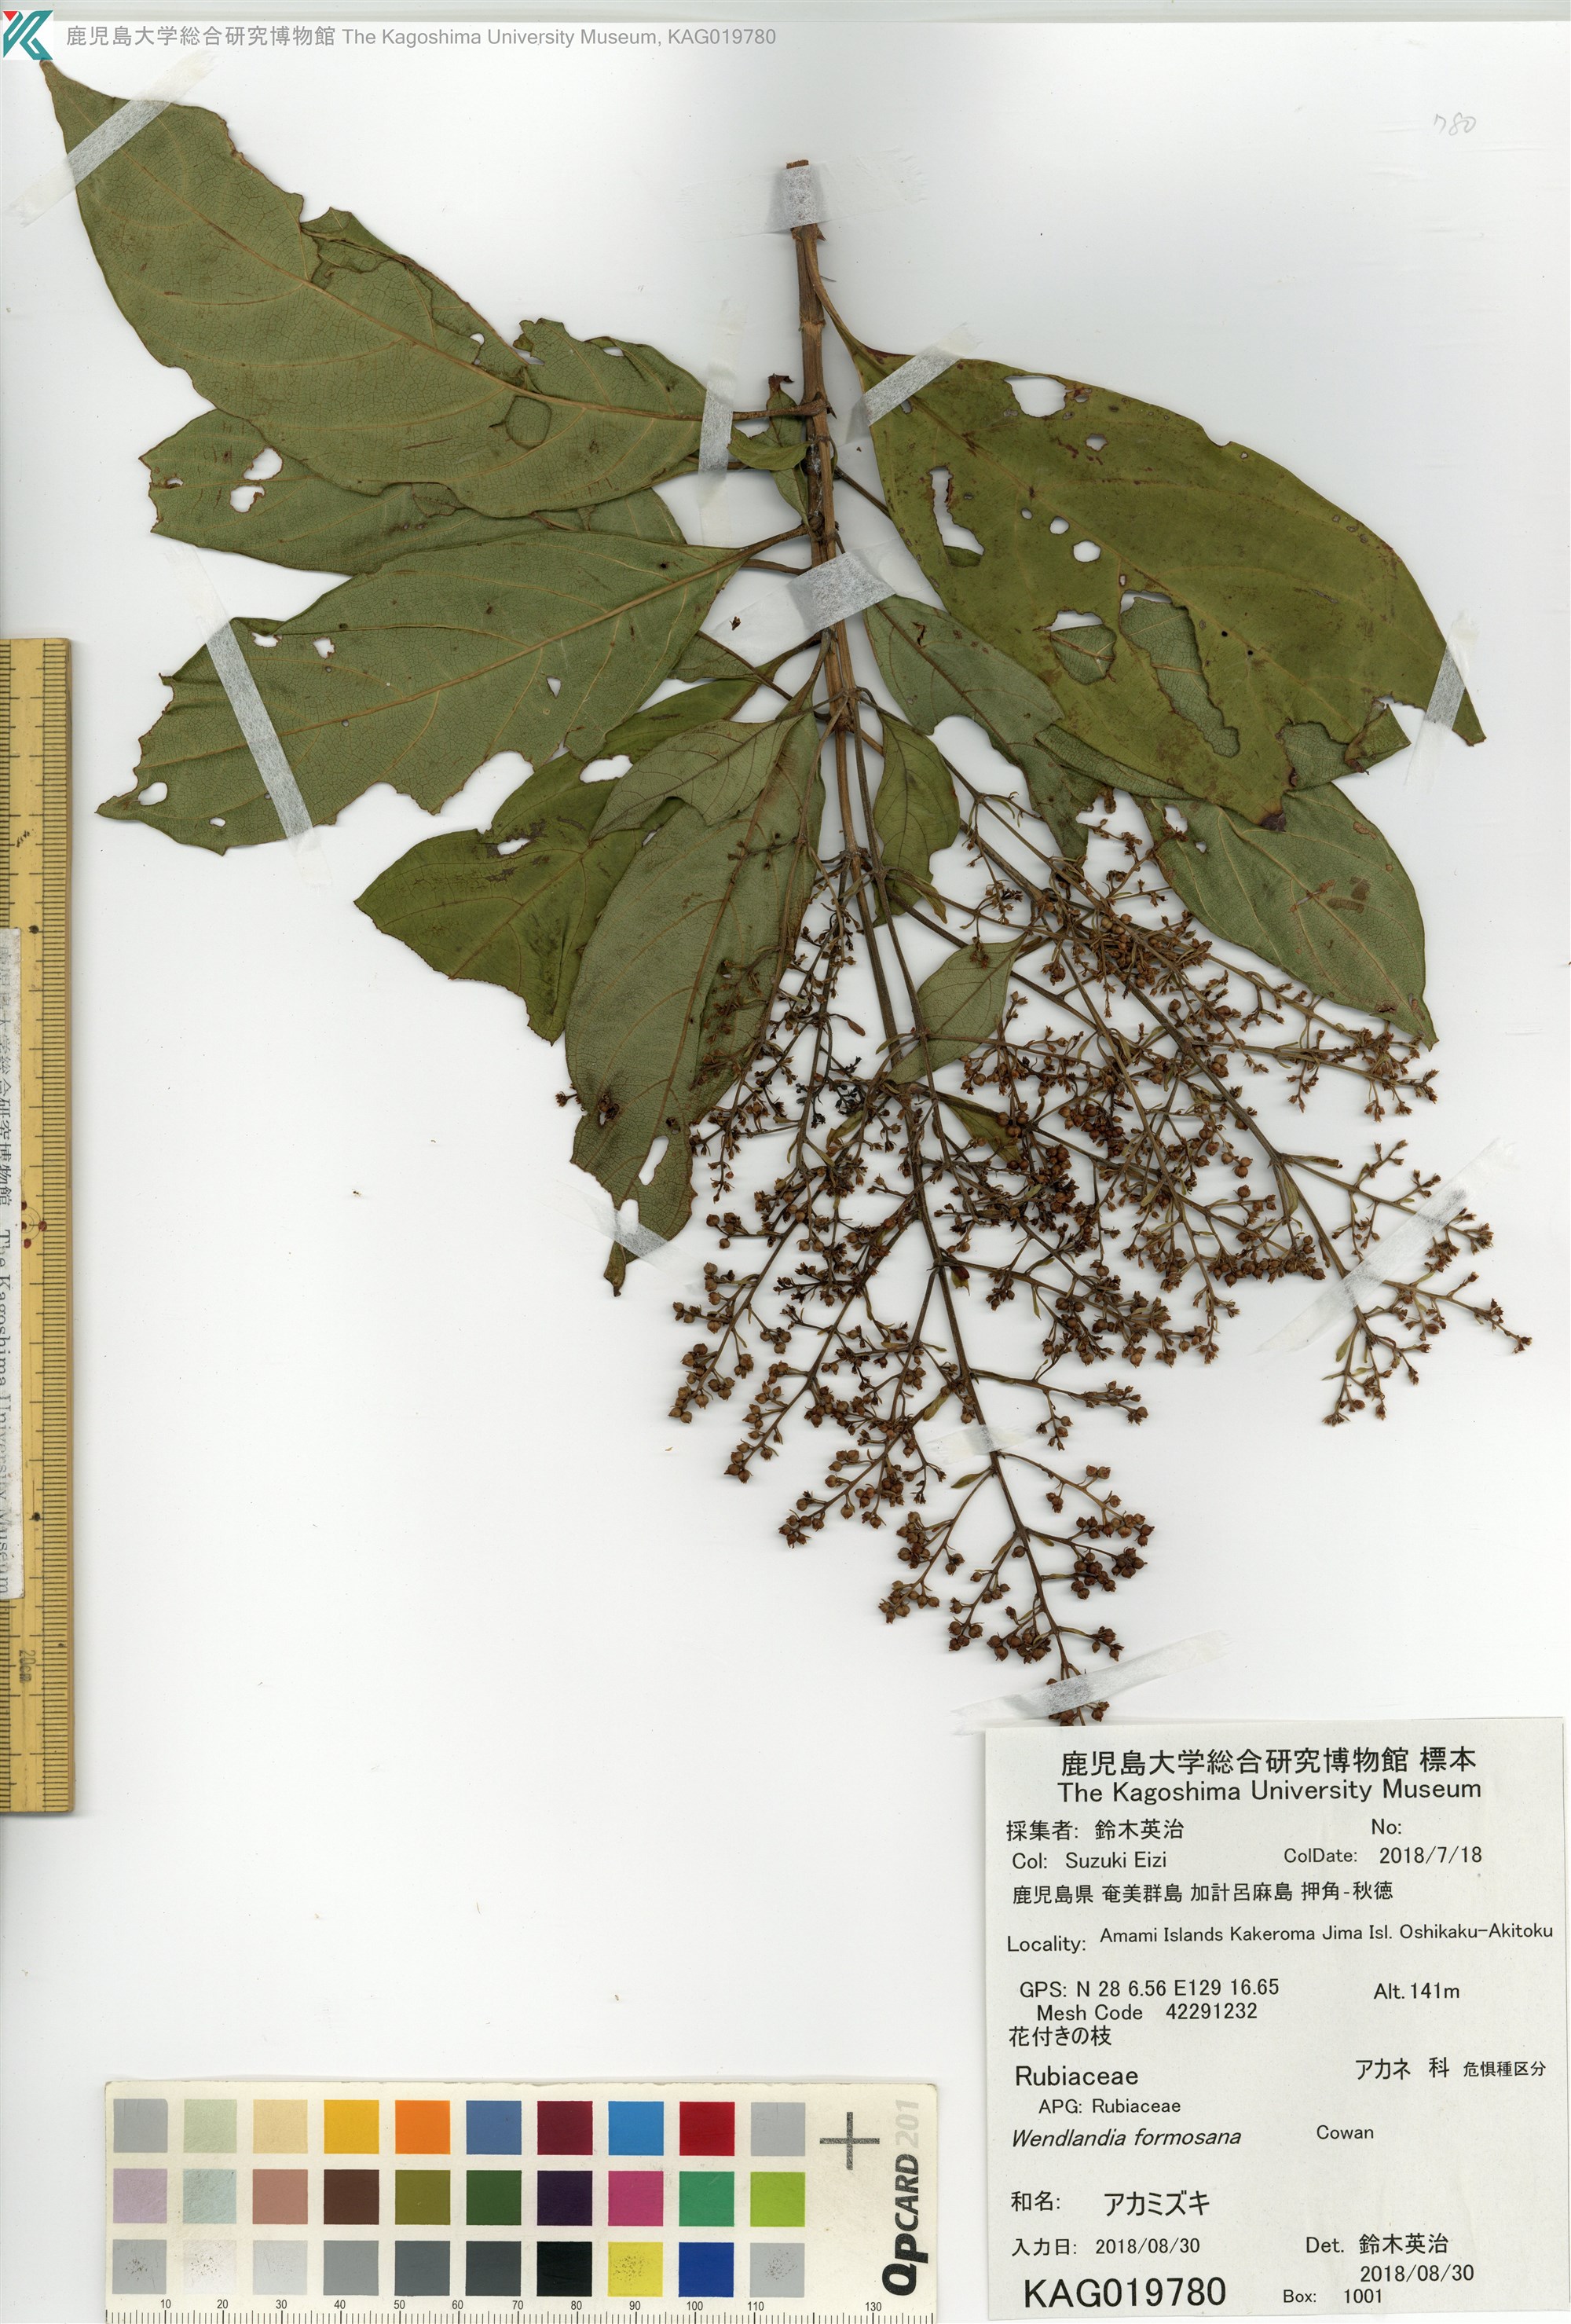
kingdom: Plantae
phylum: Tracheophyta
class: Magnoliopsida
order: Gentianales
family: Rubiaceae
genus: Wendlandia
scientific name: Wendlandia formosana
